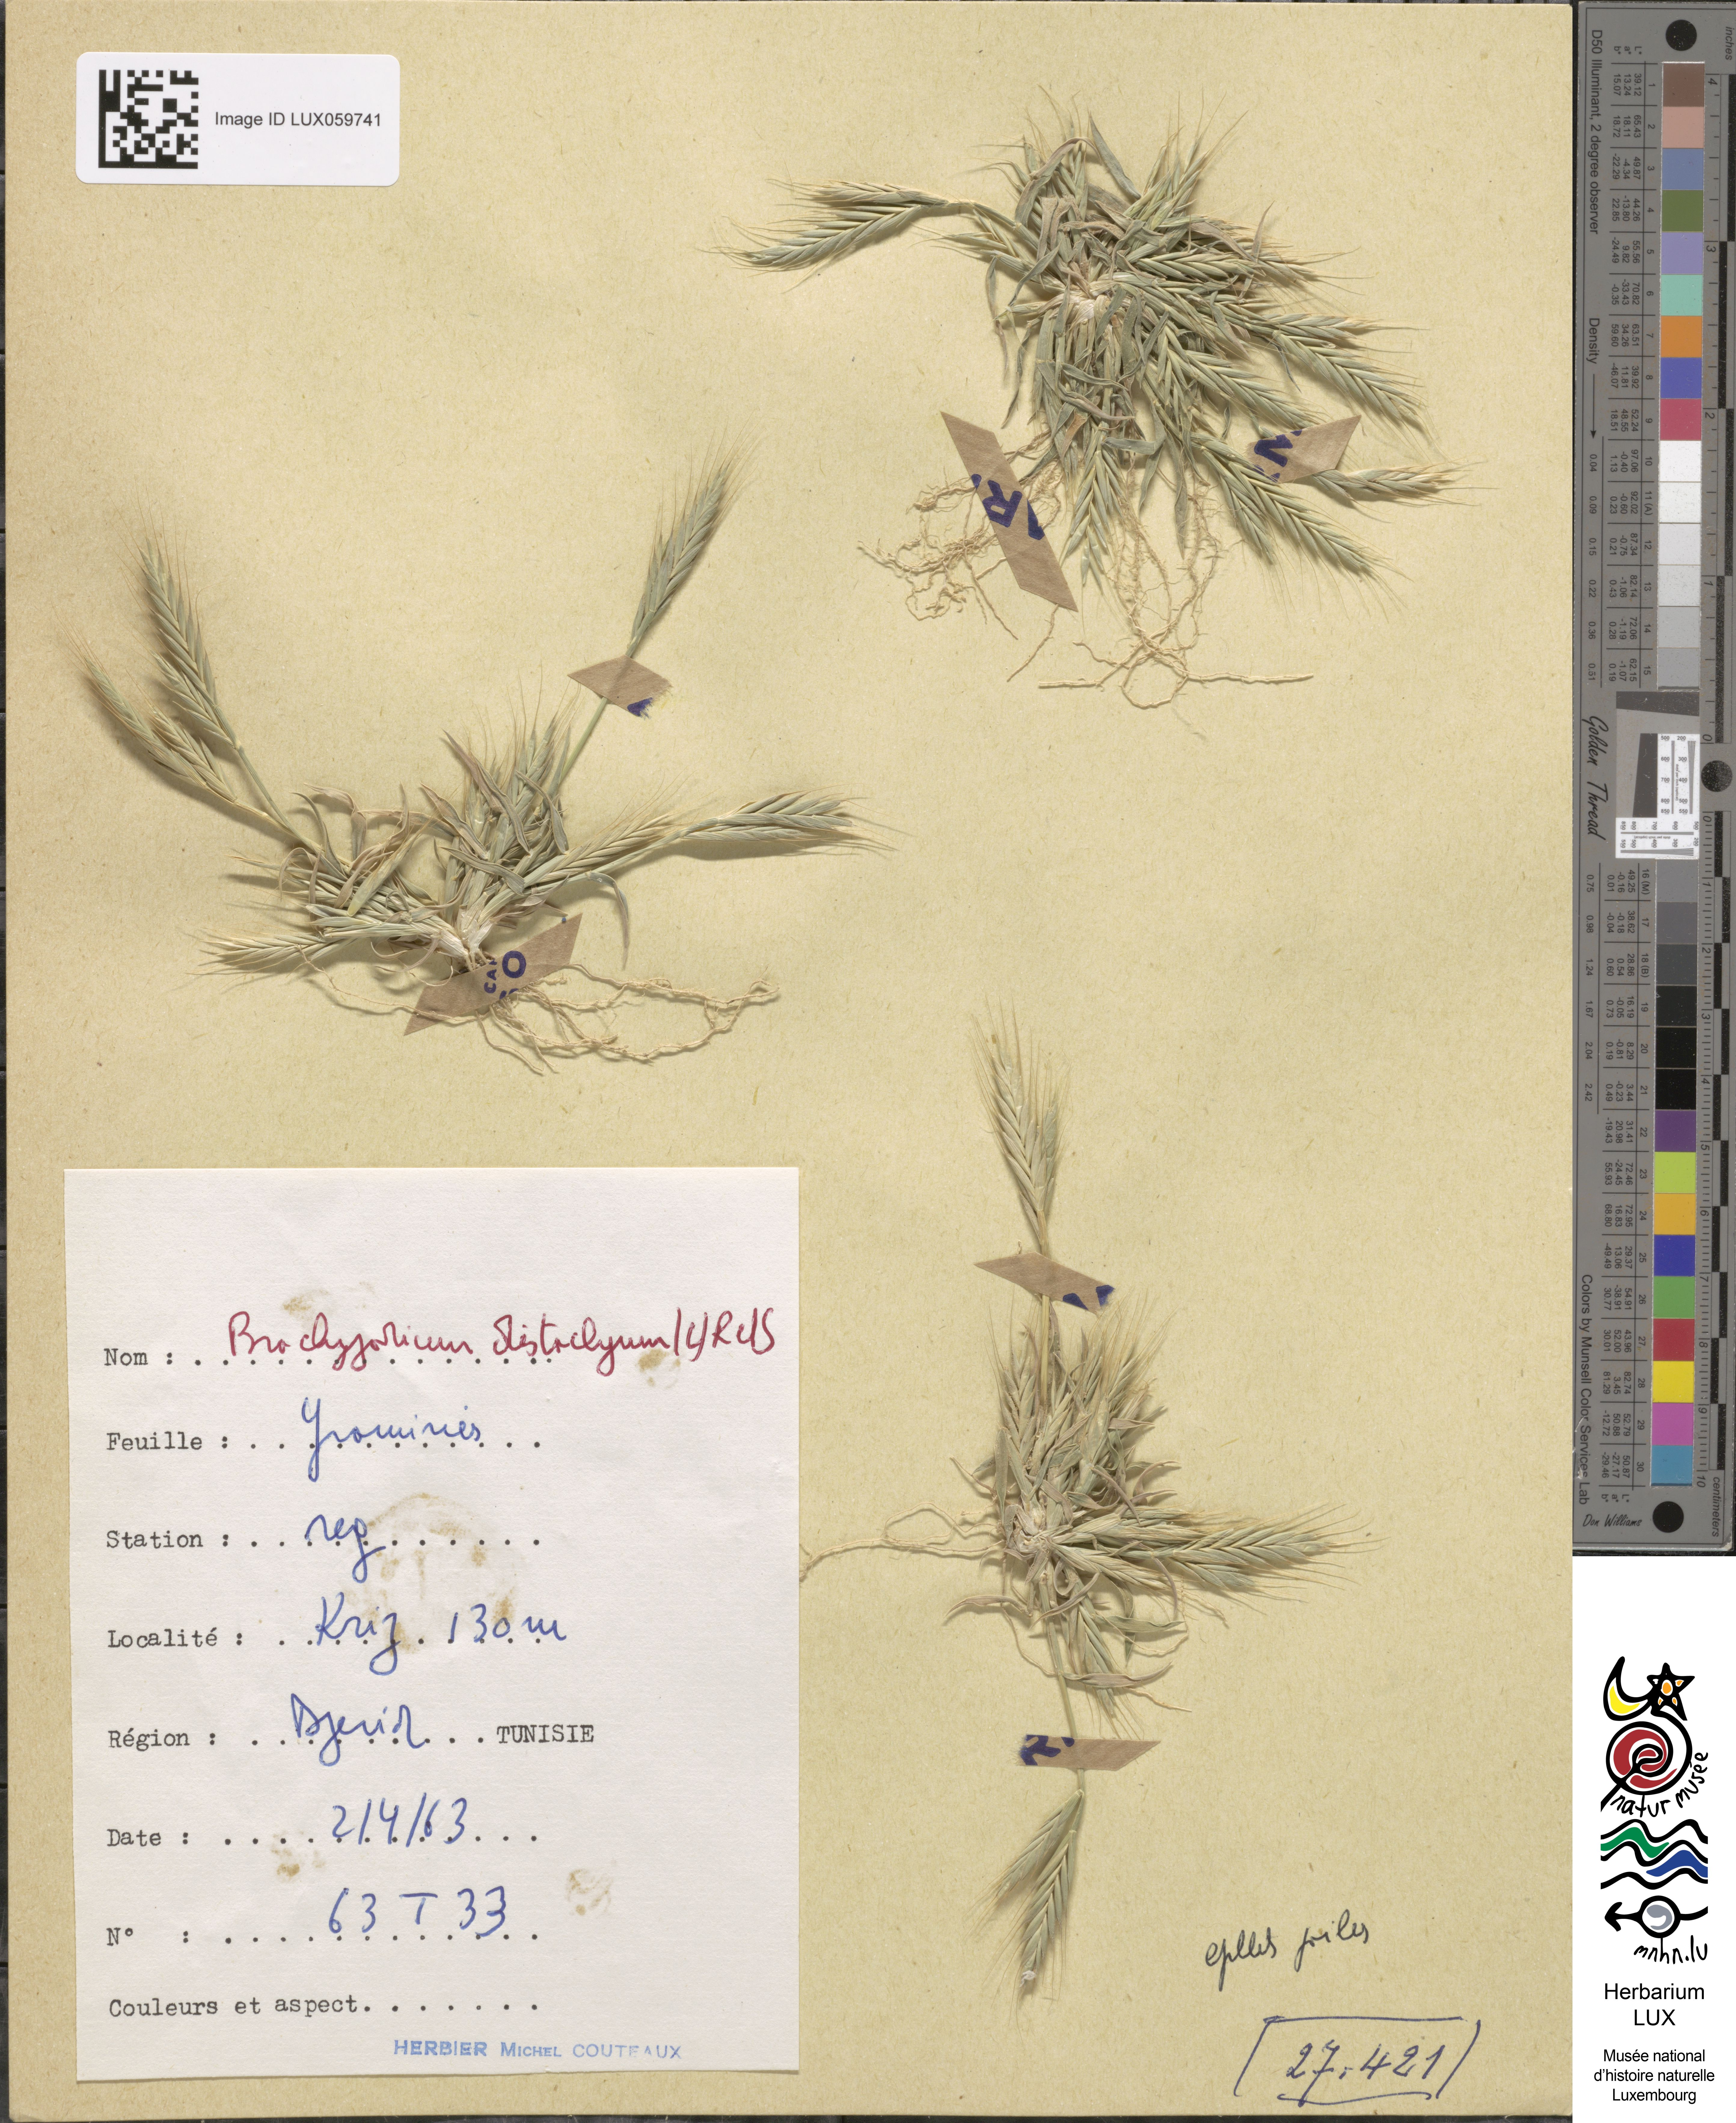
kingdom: Plantae
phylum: Tracheophyta
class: Liliopsida
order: Poales
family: Poaceae
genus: Brachypodium
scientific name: Brachypodium distachyon
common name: Stiff brome
